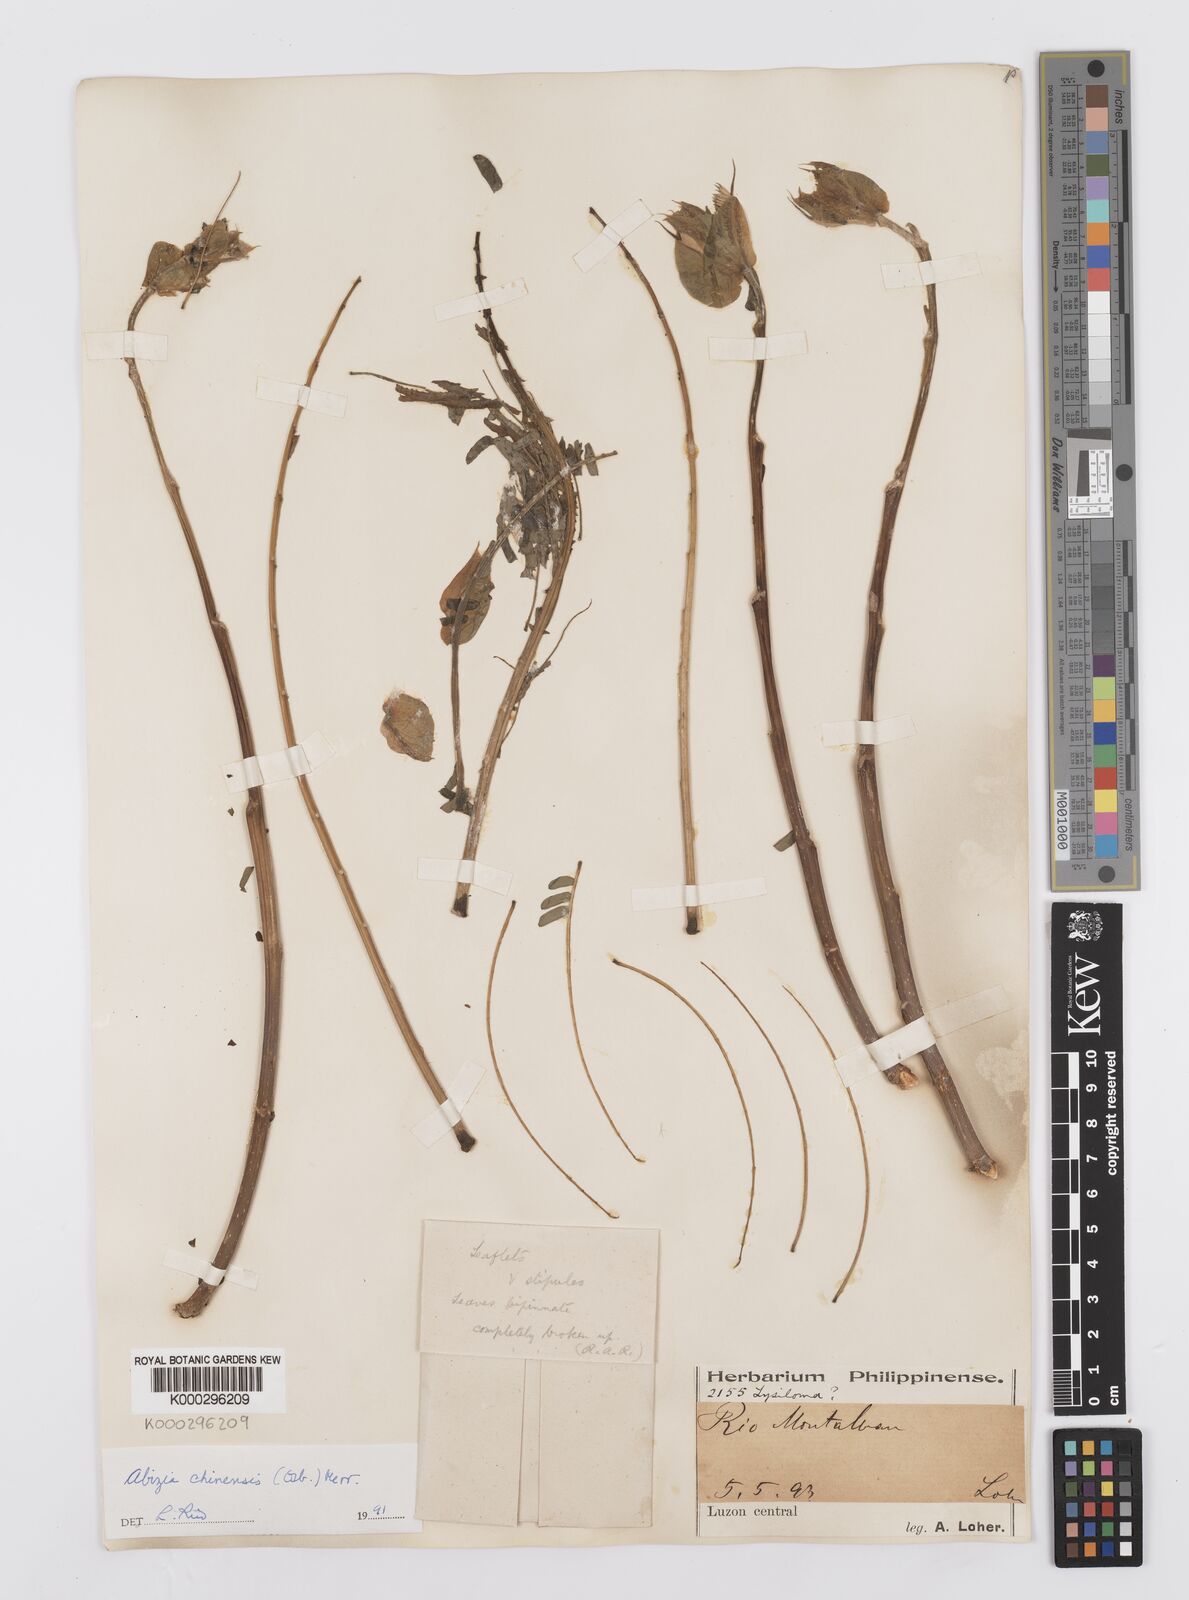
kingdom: Plantae
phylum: Tracheophyta
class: Magnoliopsida
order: Fabales
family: Fabaceae
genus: Albizia
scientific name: Albizia chinensis
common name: Chinese albizia
